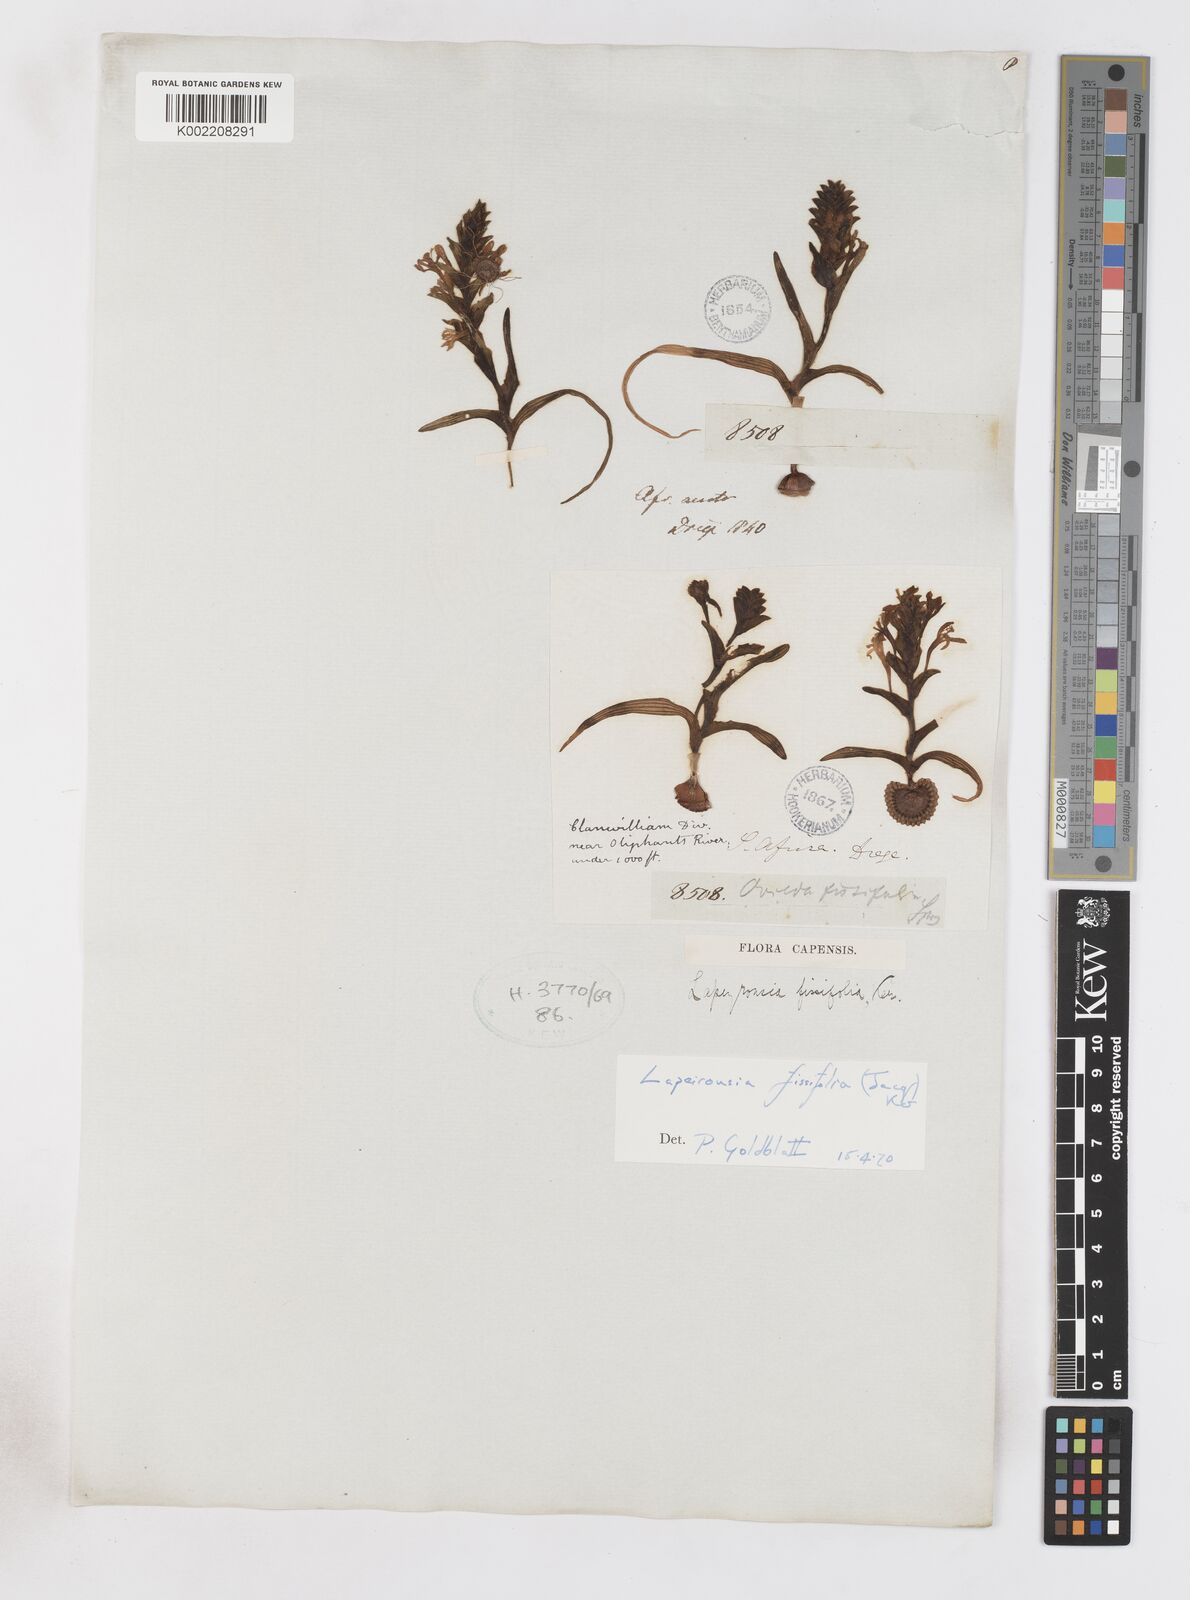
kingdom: Plantae
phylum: Tracheophyta
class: Liliopsida
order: Asparagales
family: Iridaceae
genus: Lapeirousia
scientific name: Lapeirousia pyramidalis
